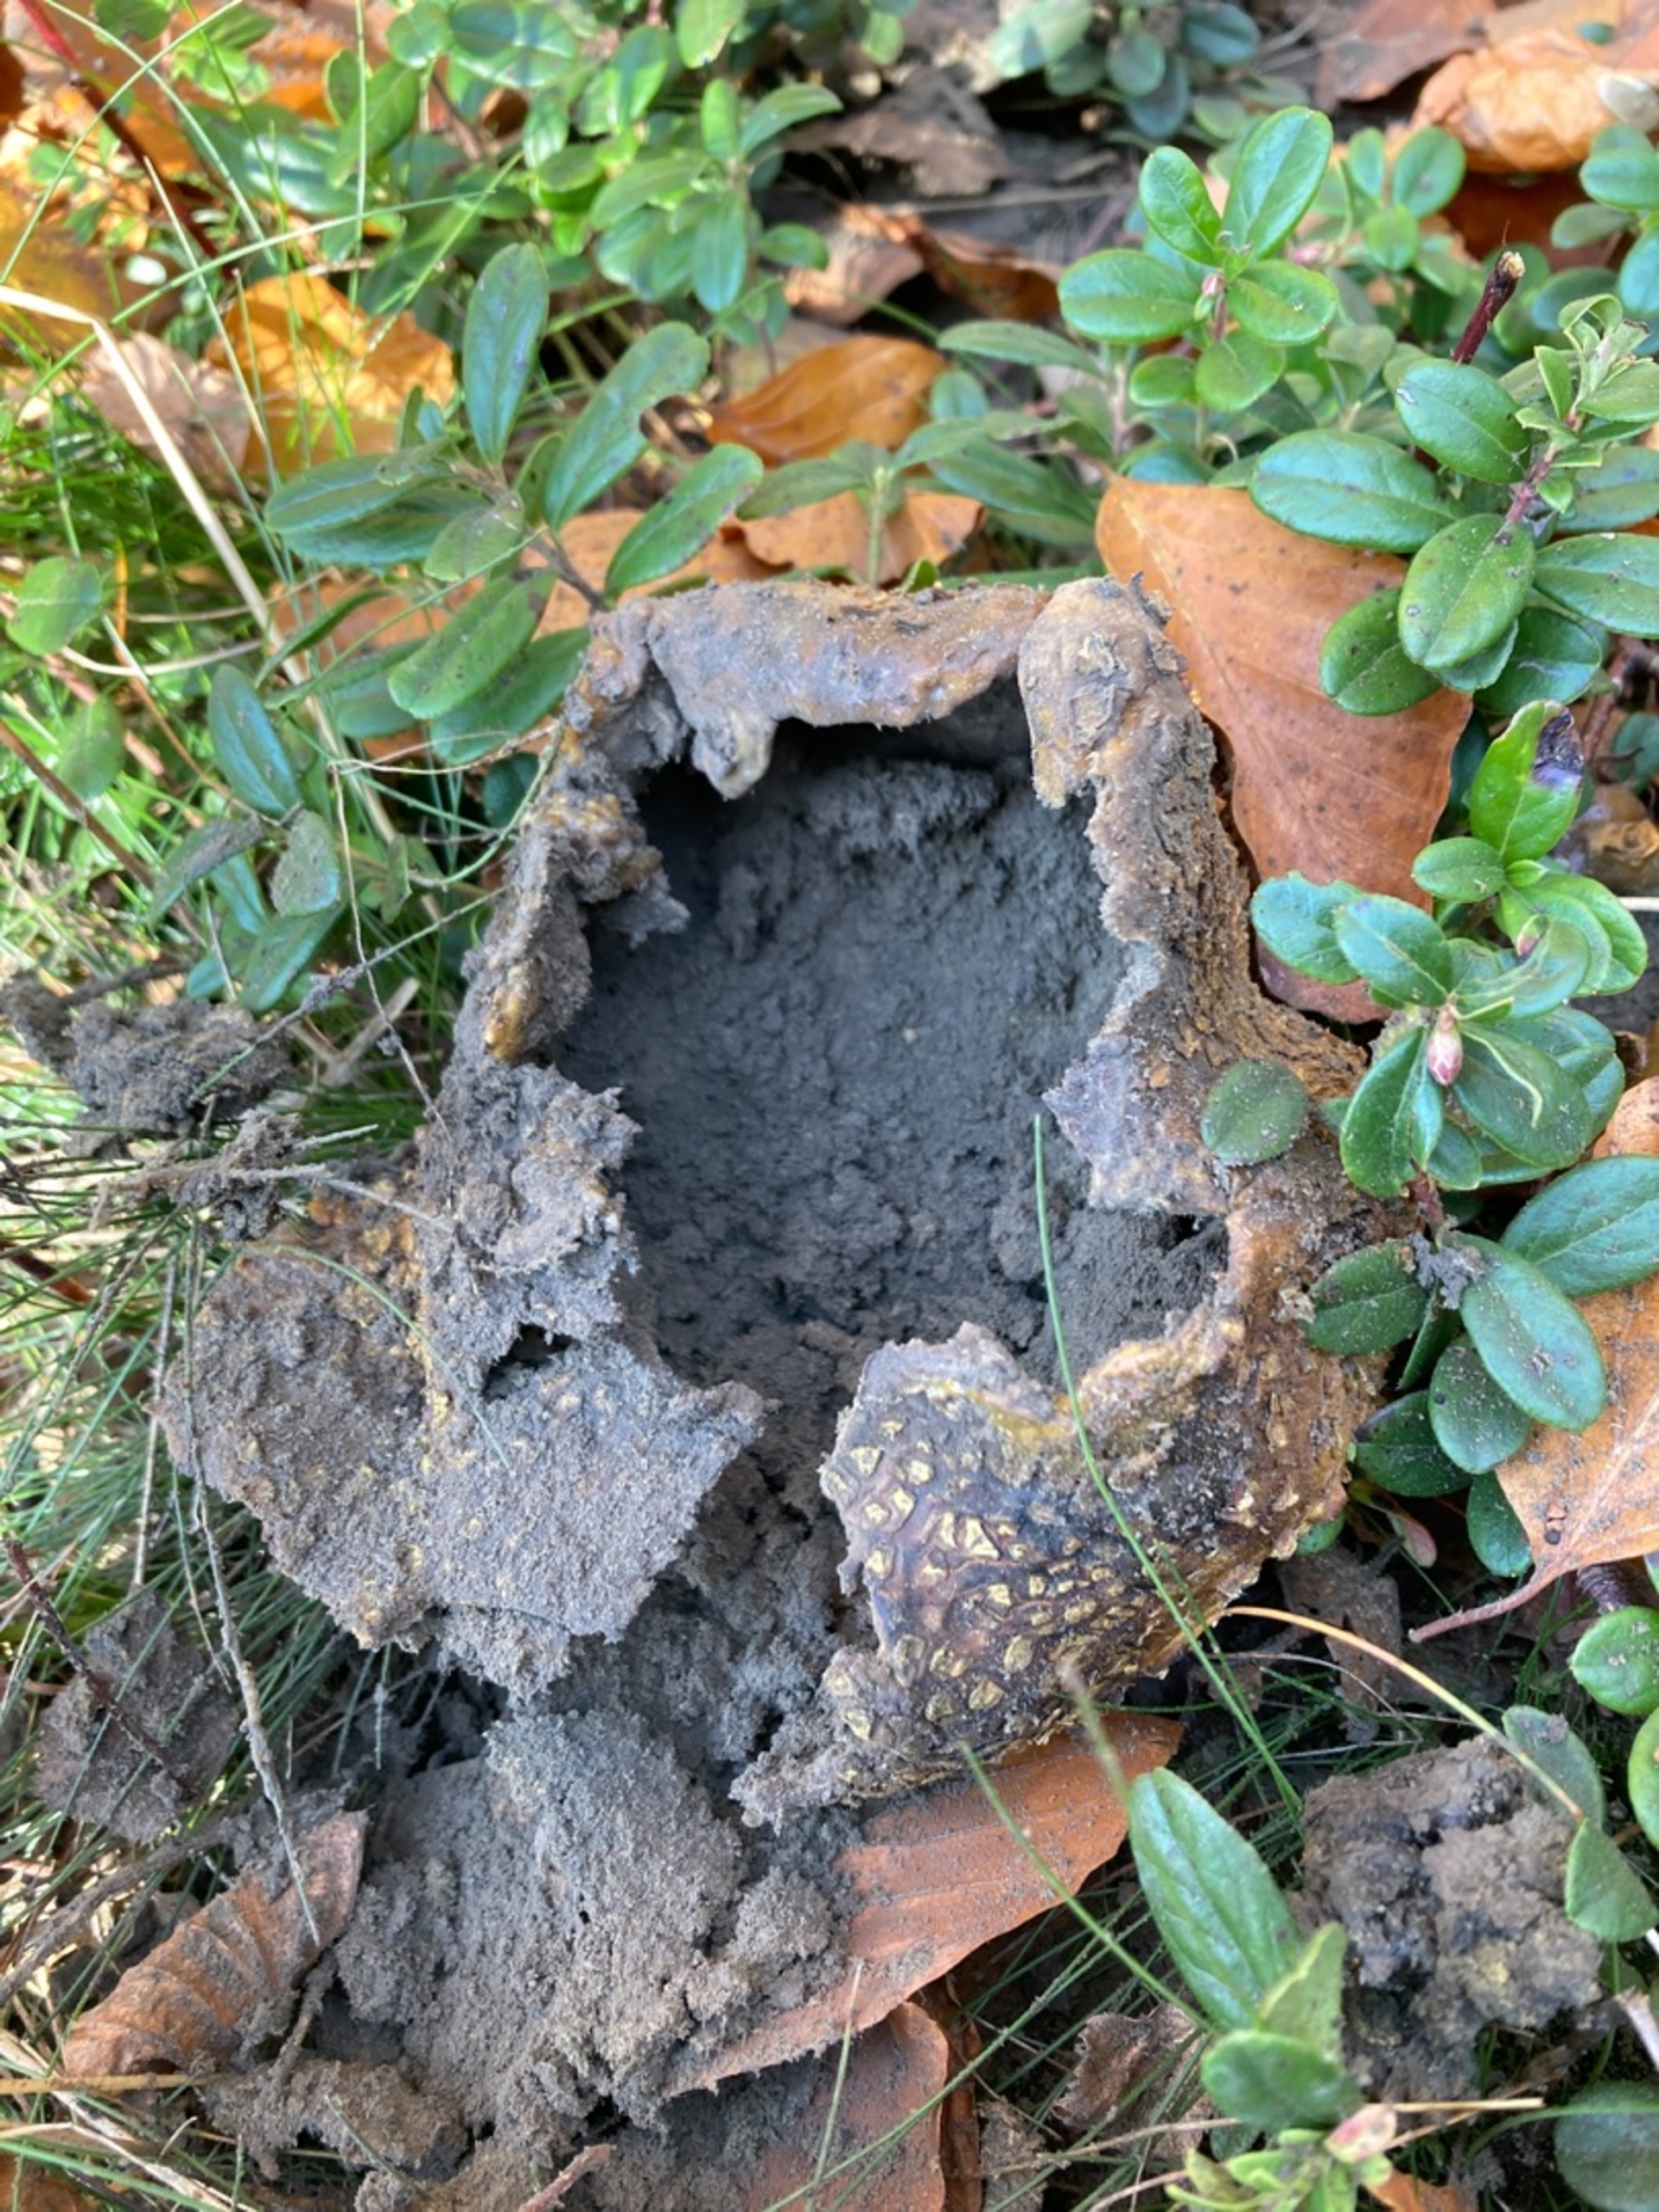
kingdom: Fungi
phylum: Basidiomycota
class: Agaricomycetes
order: Boletales
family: Sclerodermataceae
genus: Scleroderma
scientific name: Scleroderma citrinum
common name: Almindelig bruskbold
